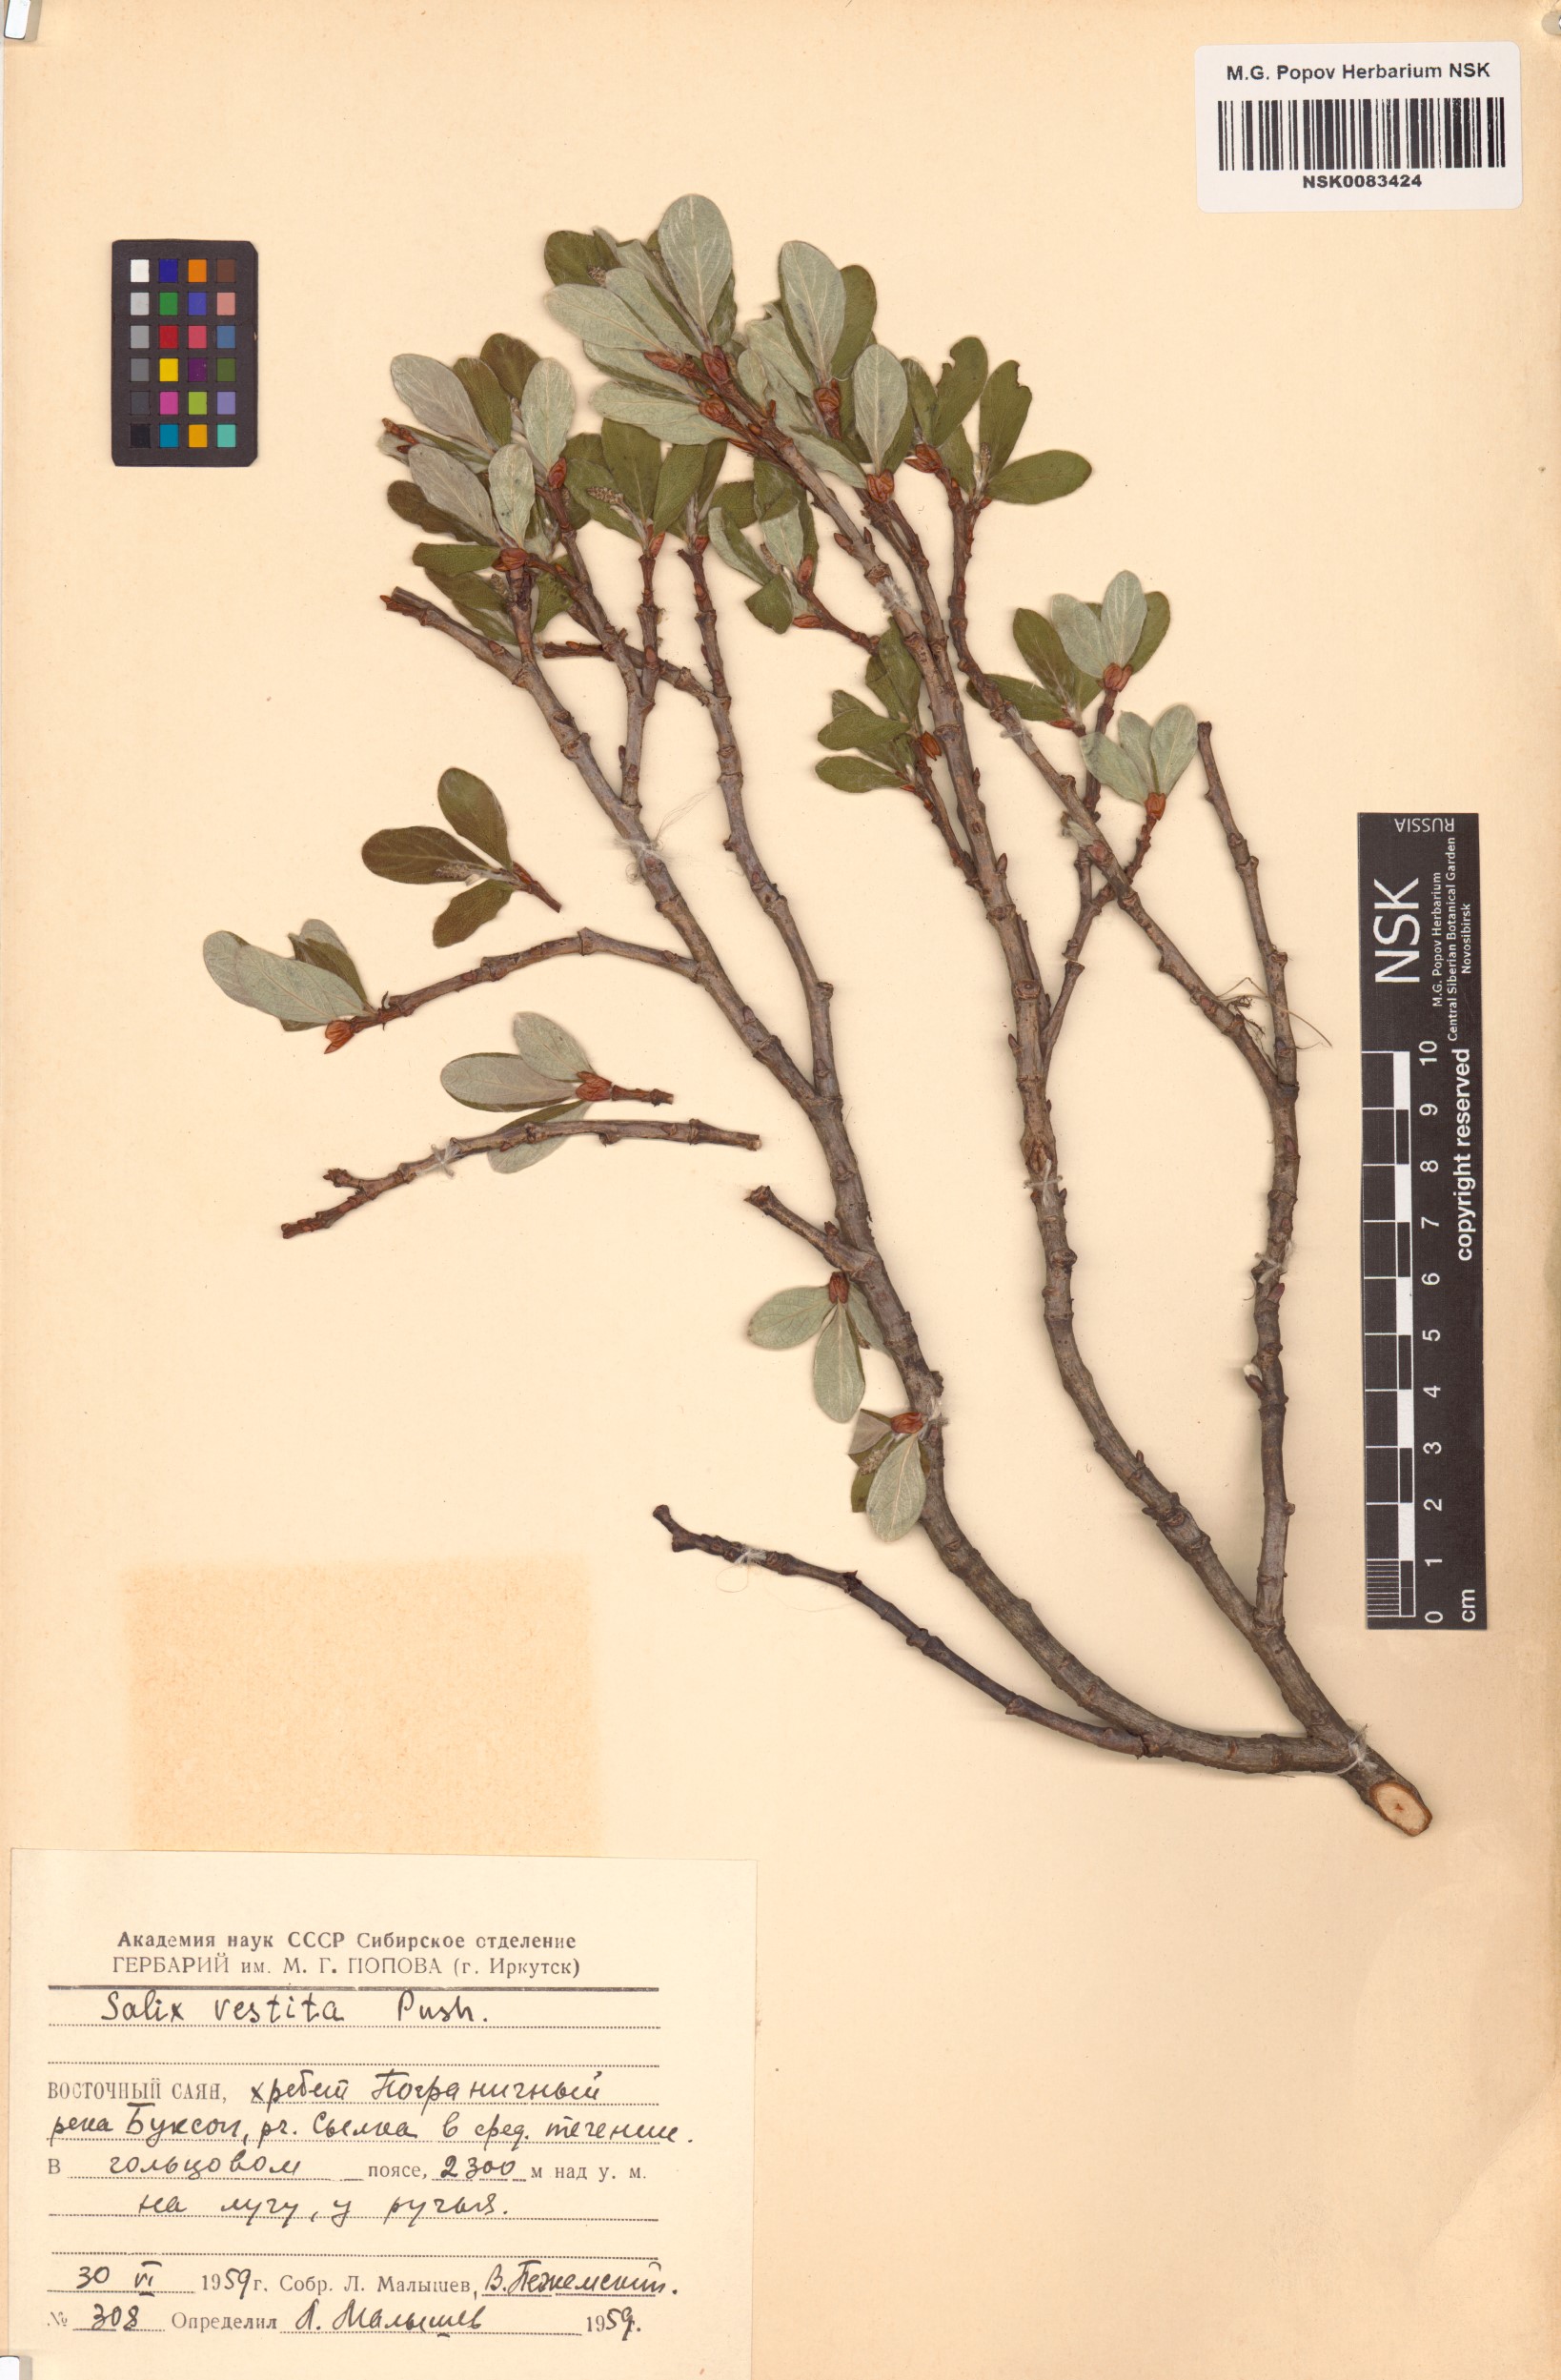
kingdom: Plantae
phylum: Tracheophyta
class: Magnoliopsida
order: Malpighiales
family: Salicaceae
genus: Salix
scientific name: Salix vestita
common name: Hairy willow
